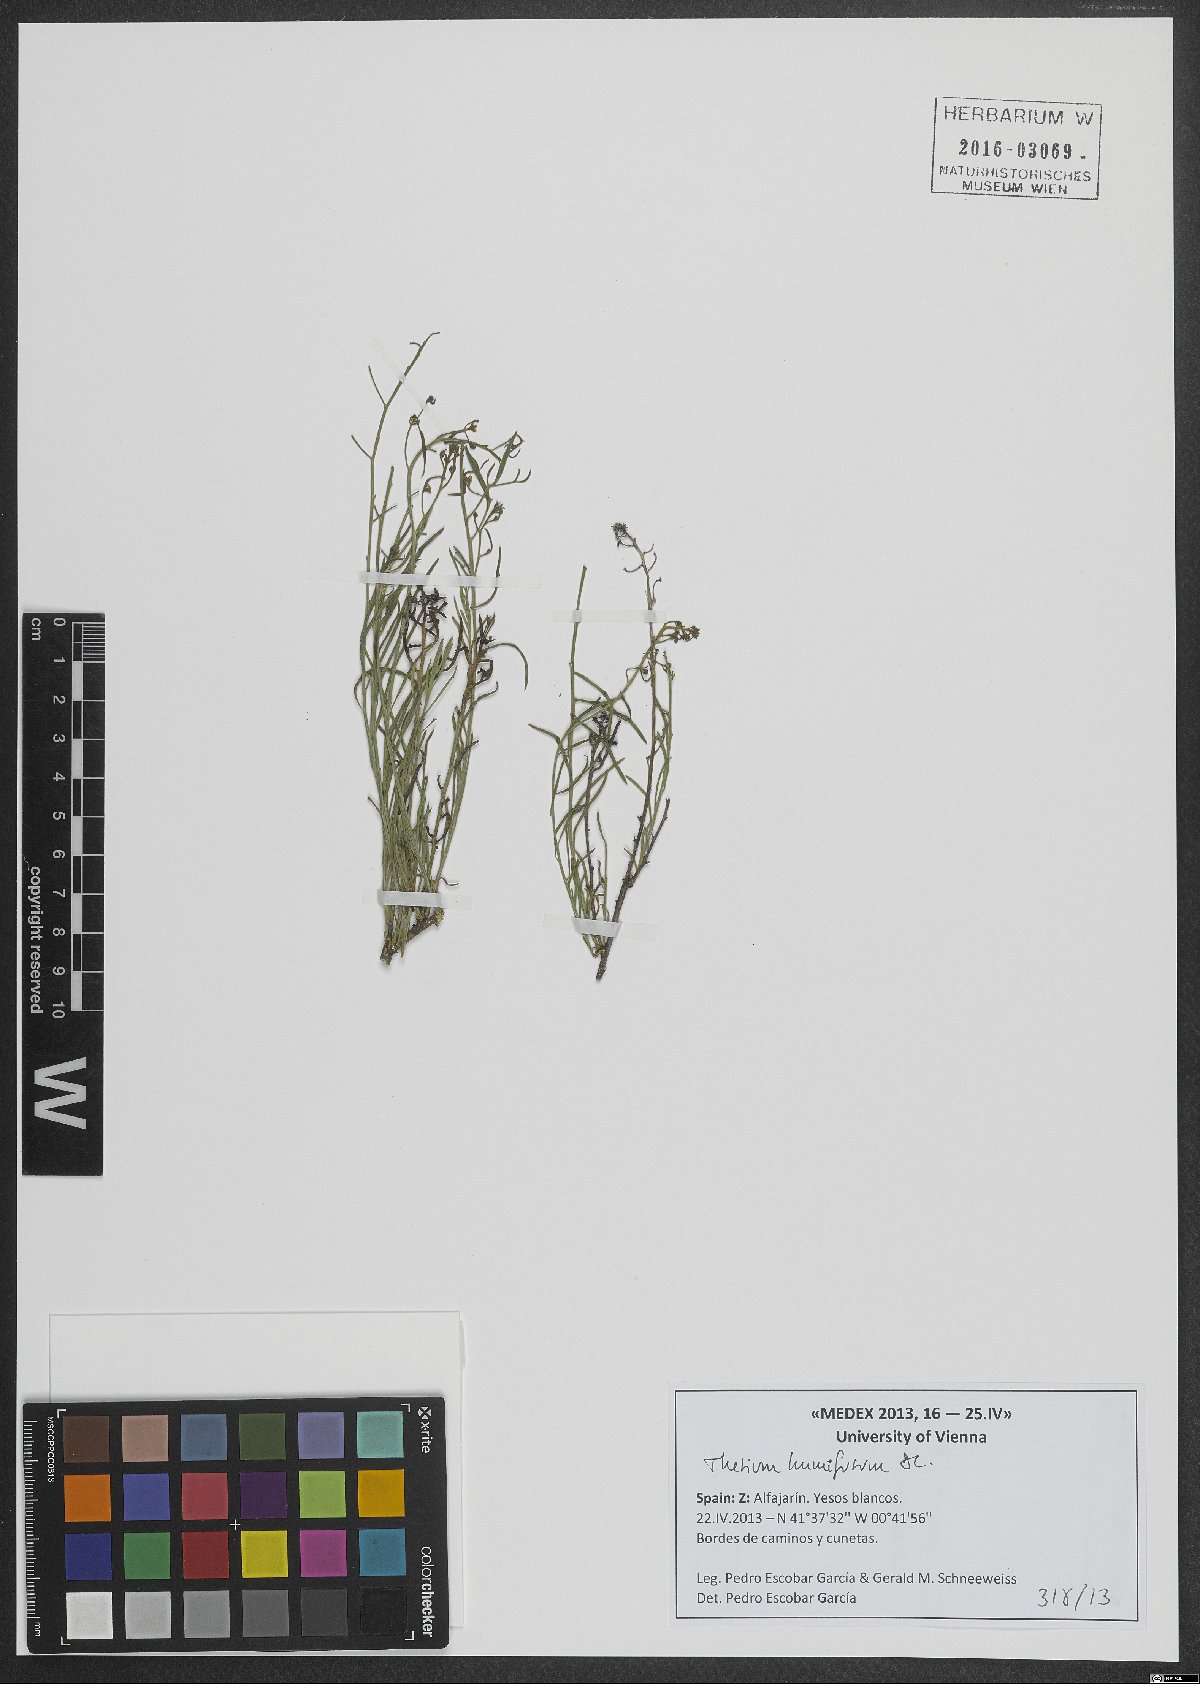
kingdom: Plantae
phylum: Tracheophyta
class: Magnoliopsida
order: Santalales
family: Thesiaceae
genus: Thesium
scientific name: Thesium humifusum
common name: Bastard-toadflax
